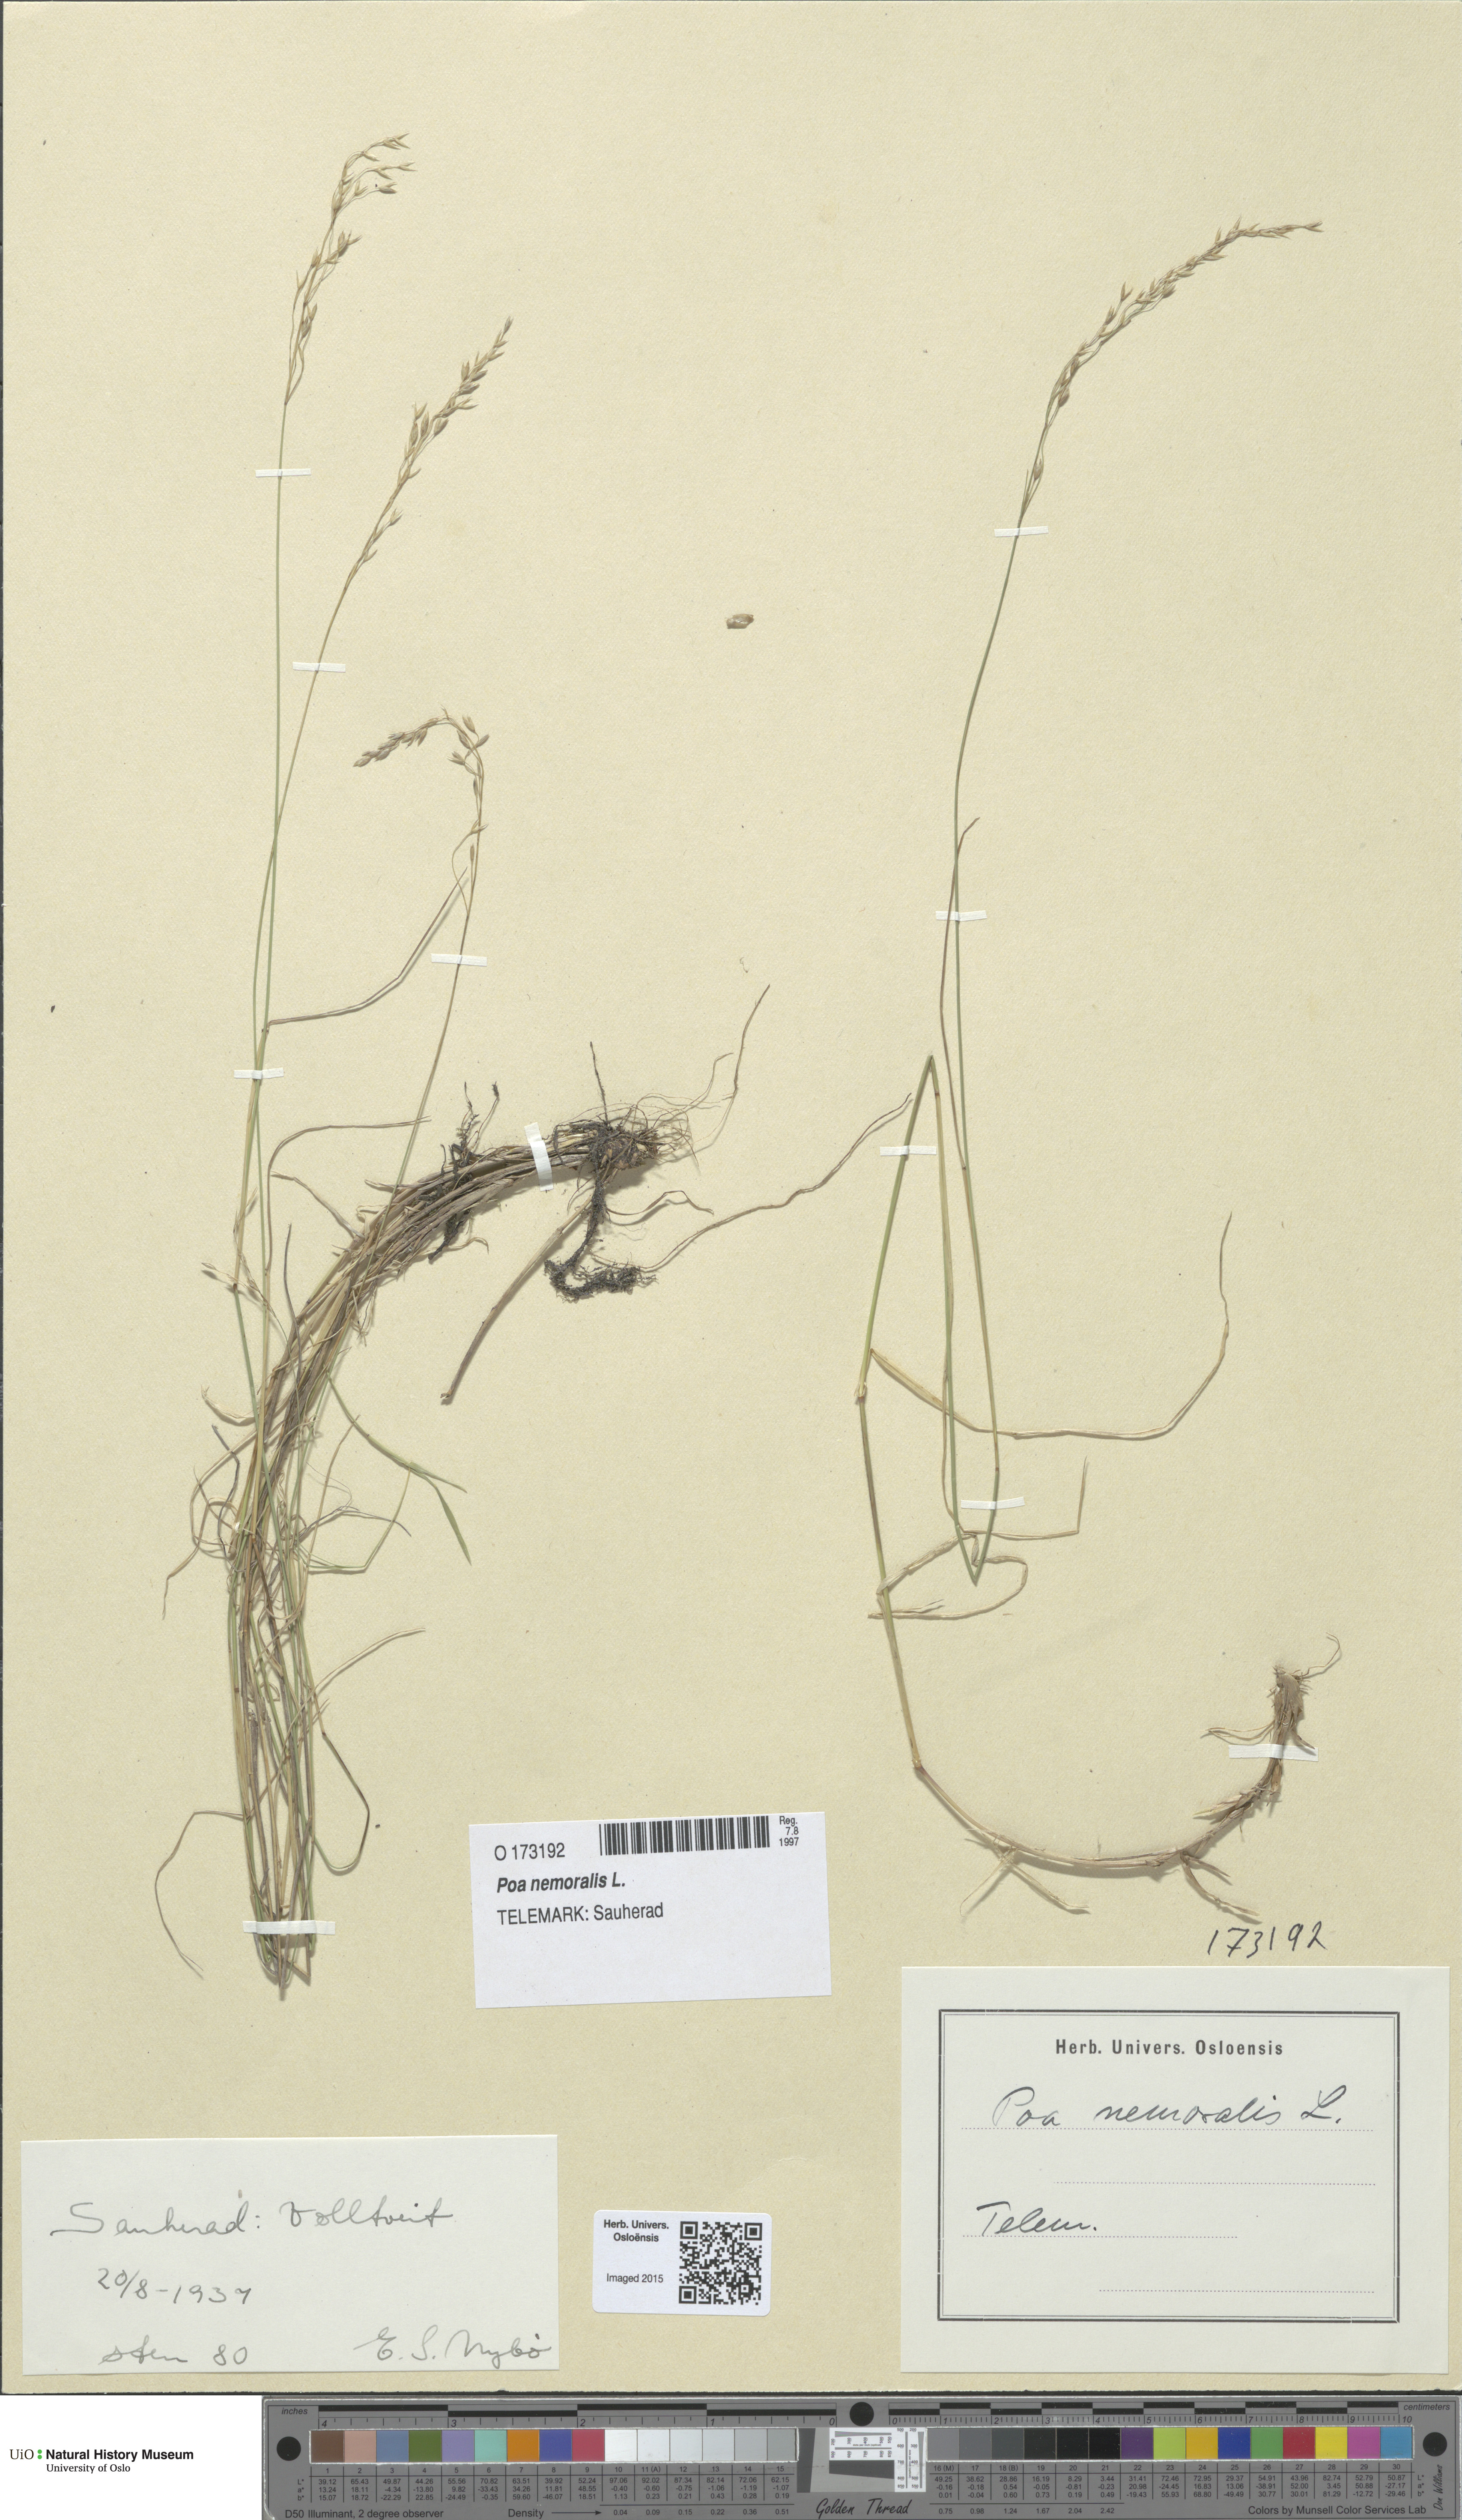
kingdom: Plantae
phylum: Tracheophyta
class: Liliopsida
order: Poales
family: Poaceae
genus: Poa
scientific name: Poa nemoralis
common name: Wood bluegrass
